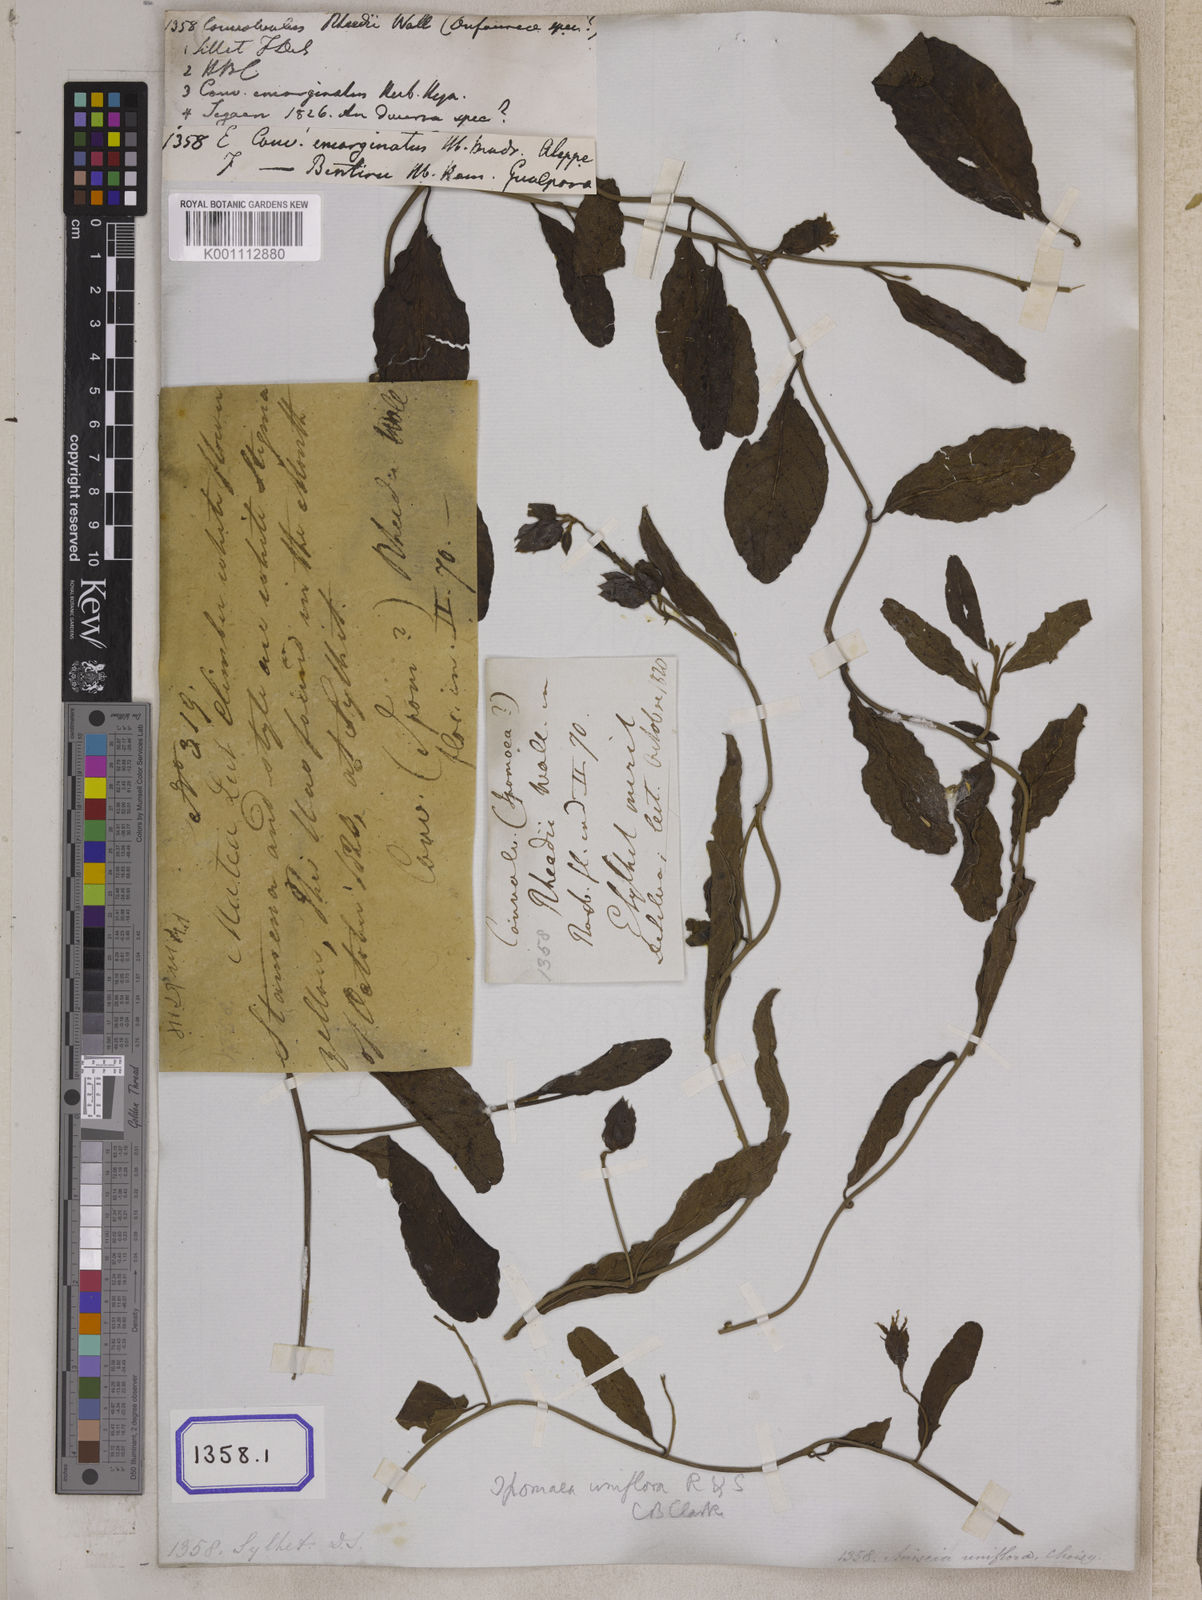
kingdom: Plantae
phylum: Tracheophyta
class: Magnoliopsida
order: Solanales
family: Convolvulaceae
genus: Aniseia
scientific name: Aniseia martinicensis
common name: Kulayadambu
